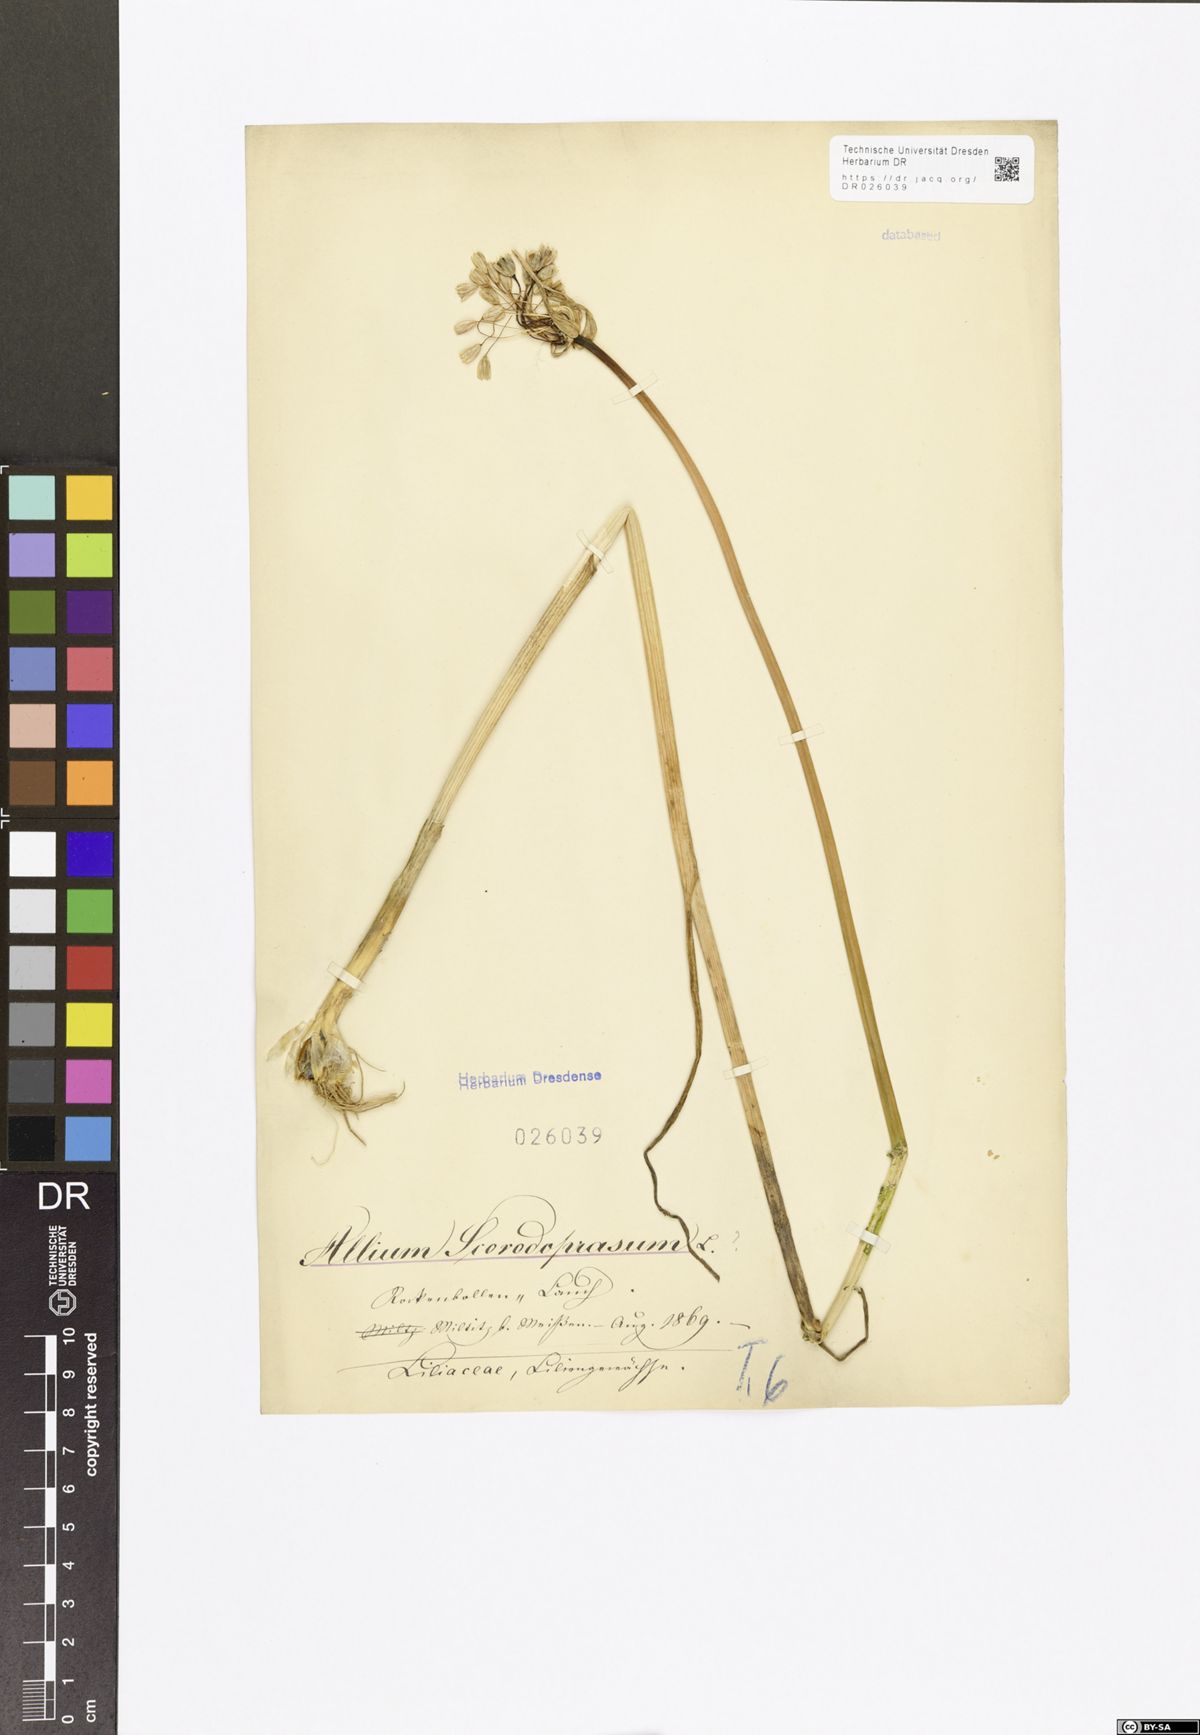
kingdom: Plantae
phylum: Tracheophyta
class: Liliopsida
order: Asparagales
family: Amaryllidaceae
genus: Allium
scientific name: Allium scorodoprasum
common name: Sand leek
